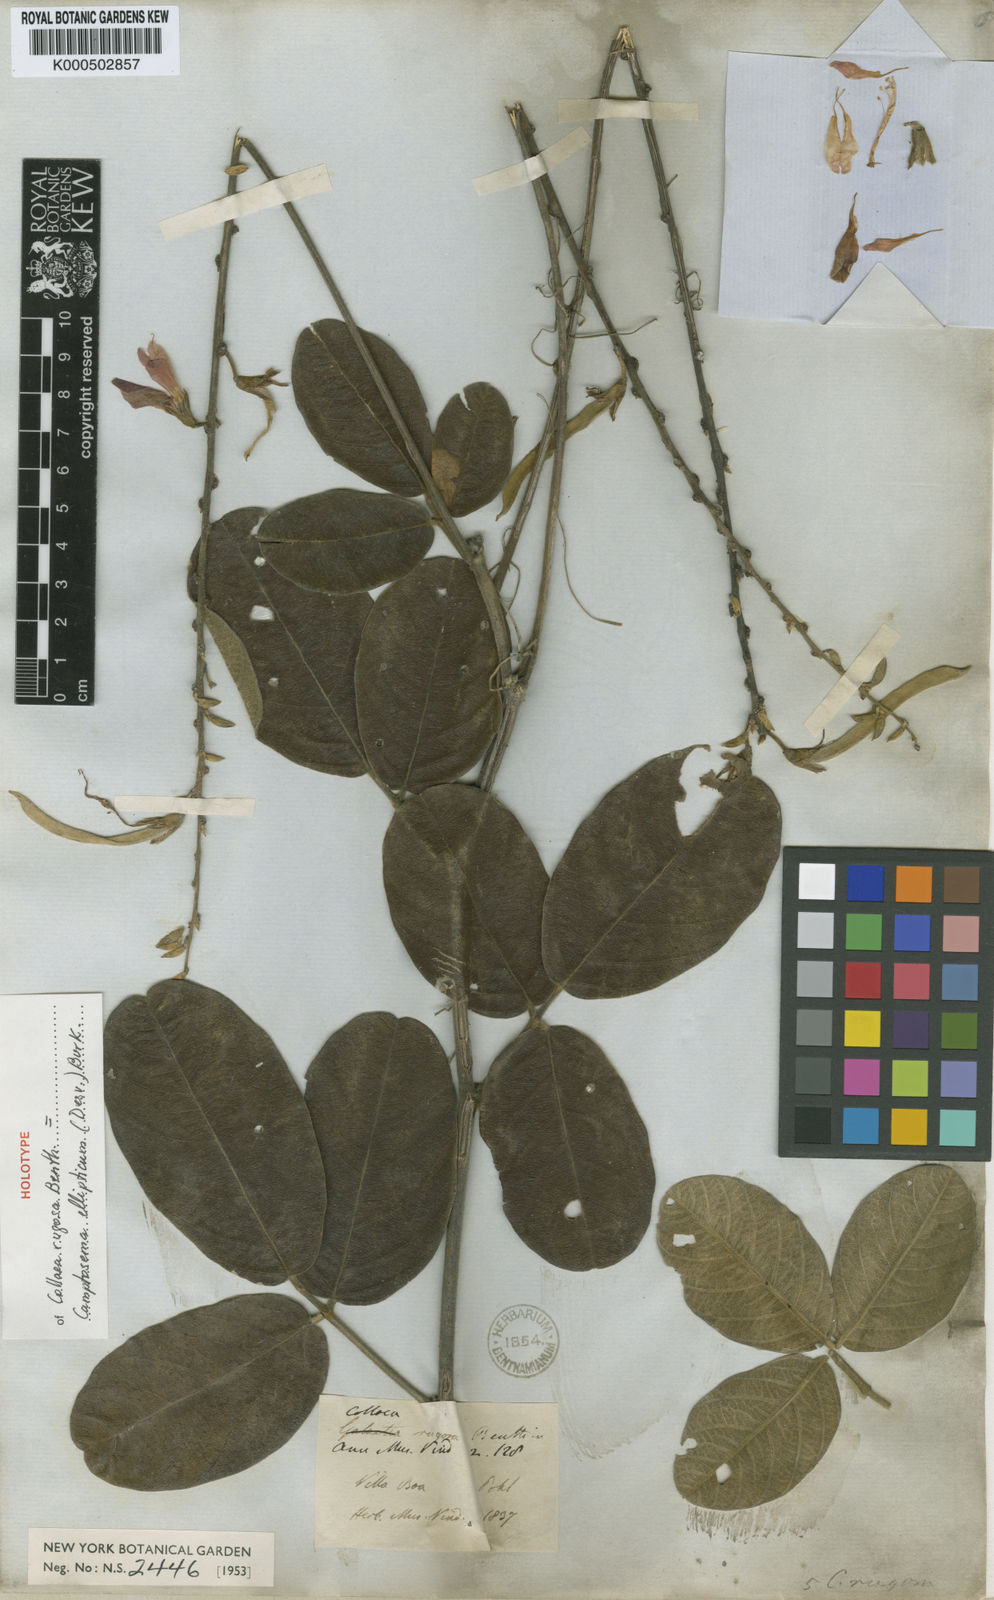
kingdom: Plantae
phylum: Tracheophyta
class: Magnoliopsida
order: Fabales
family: Fabaceae
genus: Camptosema
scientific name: Camptosema
